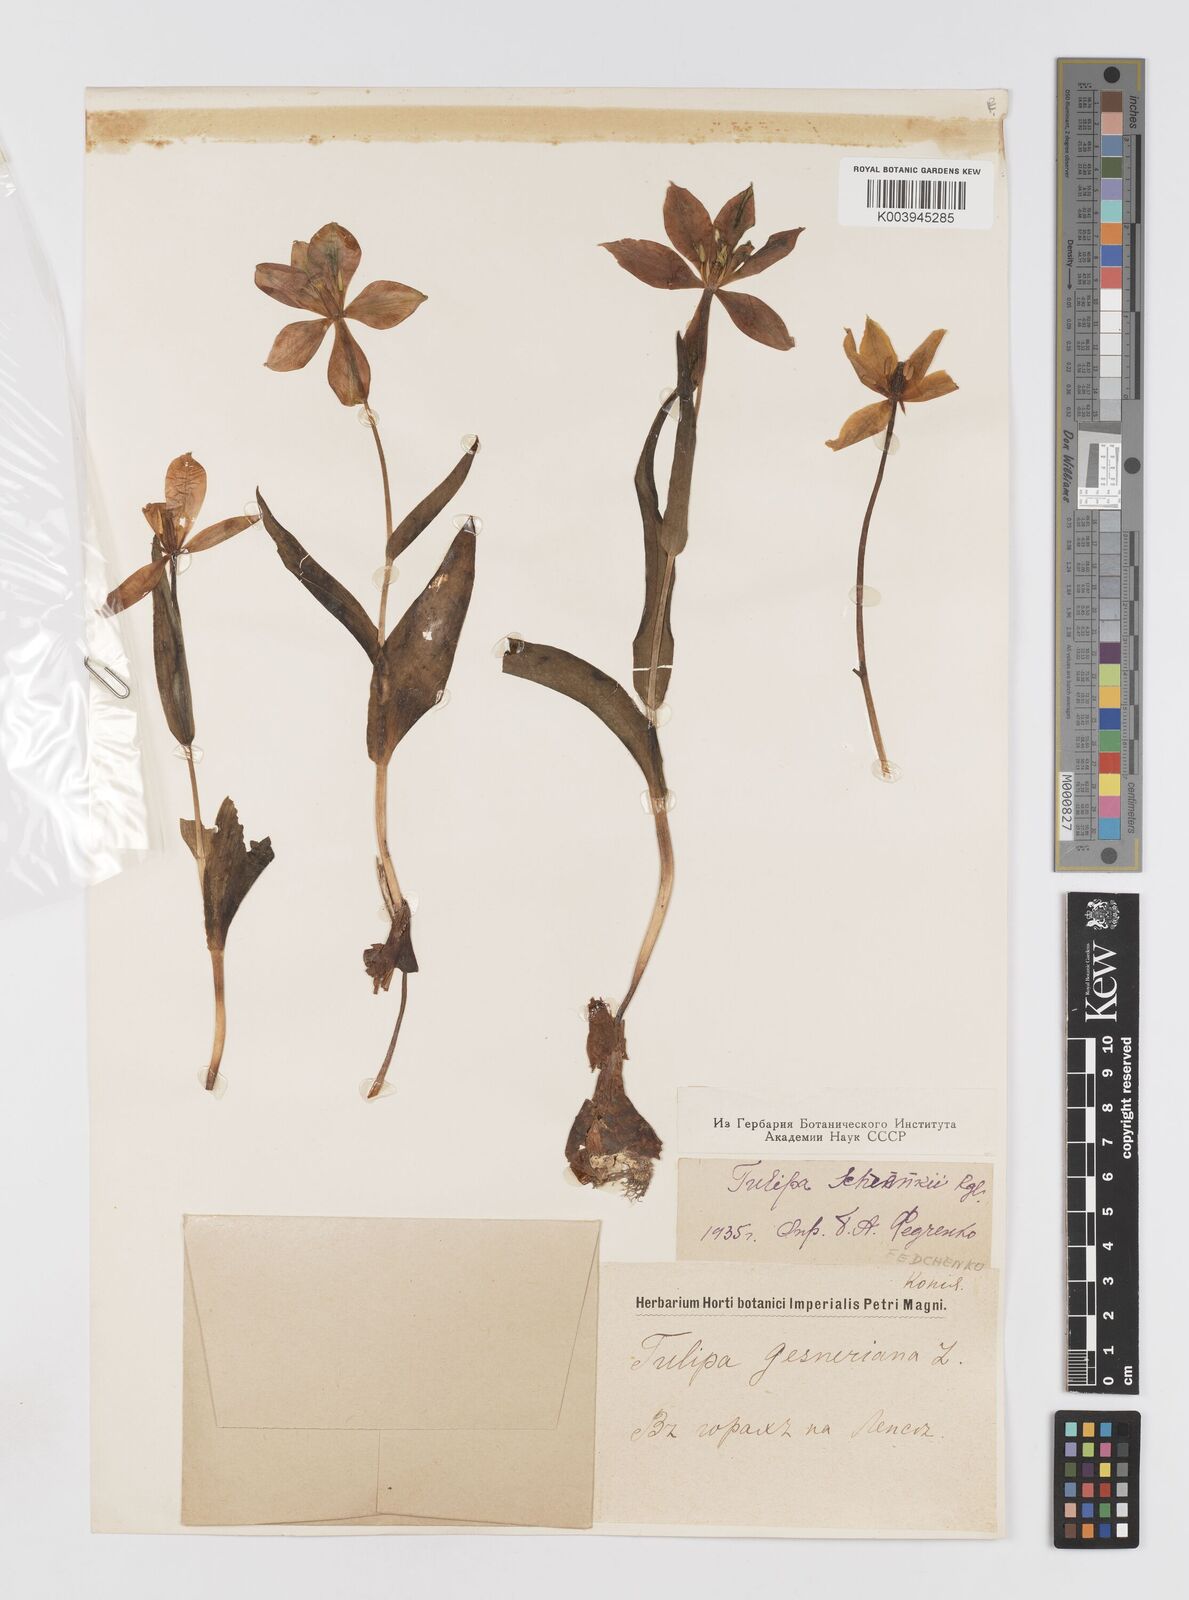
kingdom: Plantae
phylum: Tracheophyta
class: Liliopsida
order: Liliales
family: Liliaceae
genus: Tulipa
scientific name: Tulipa suaveolens
